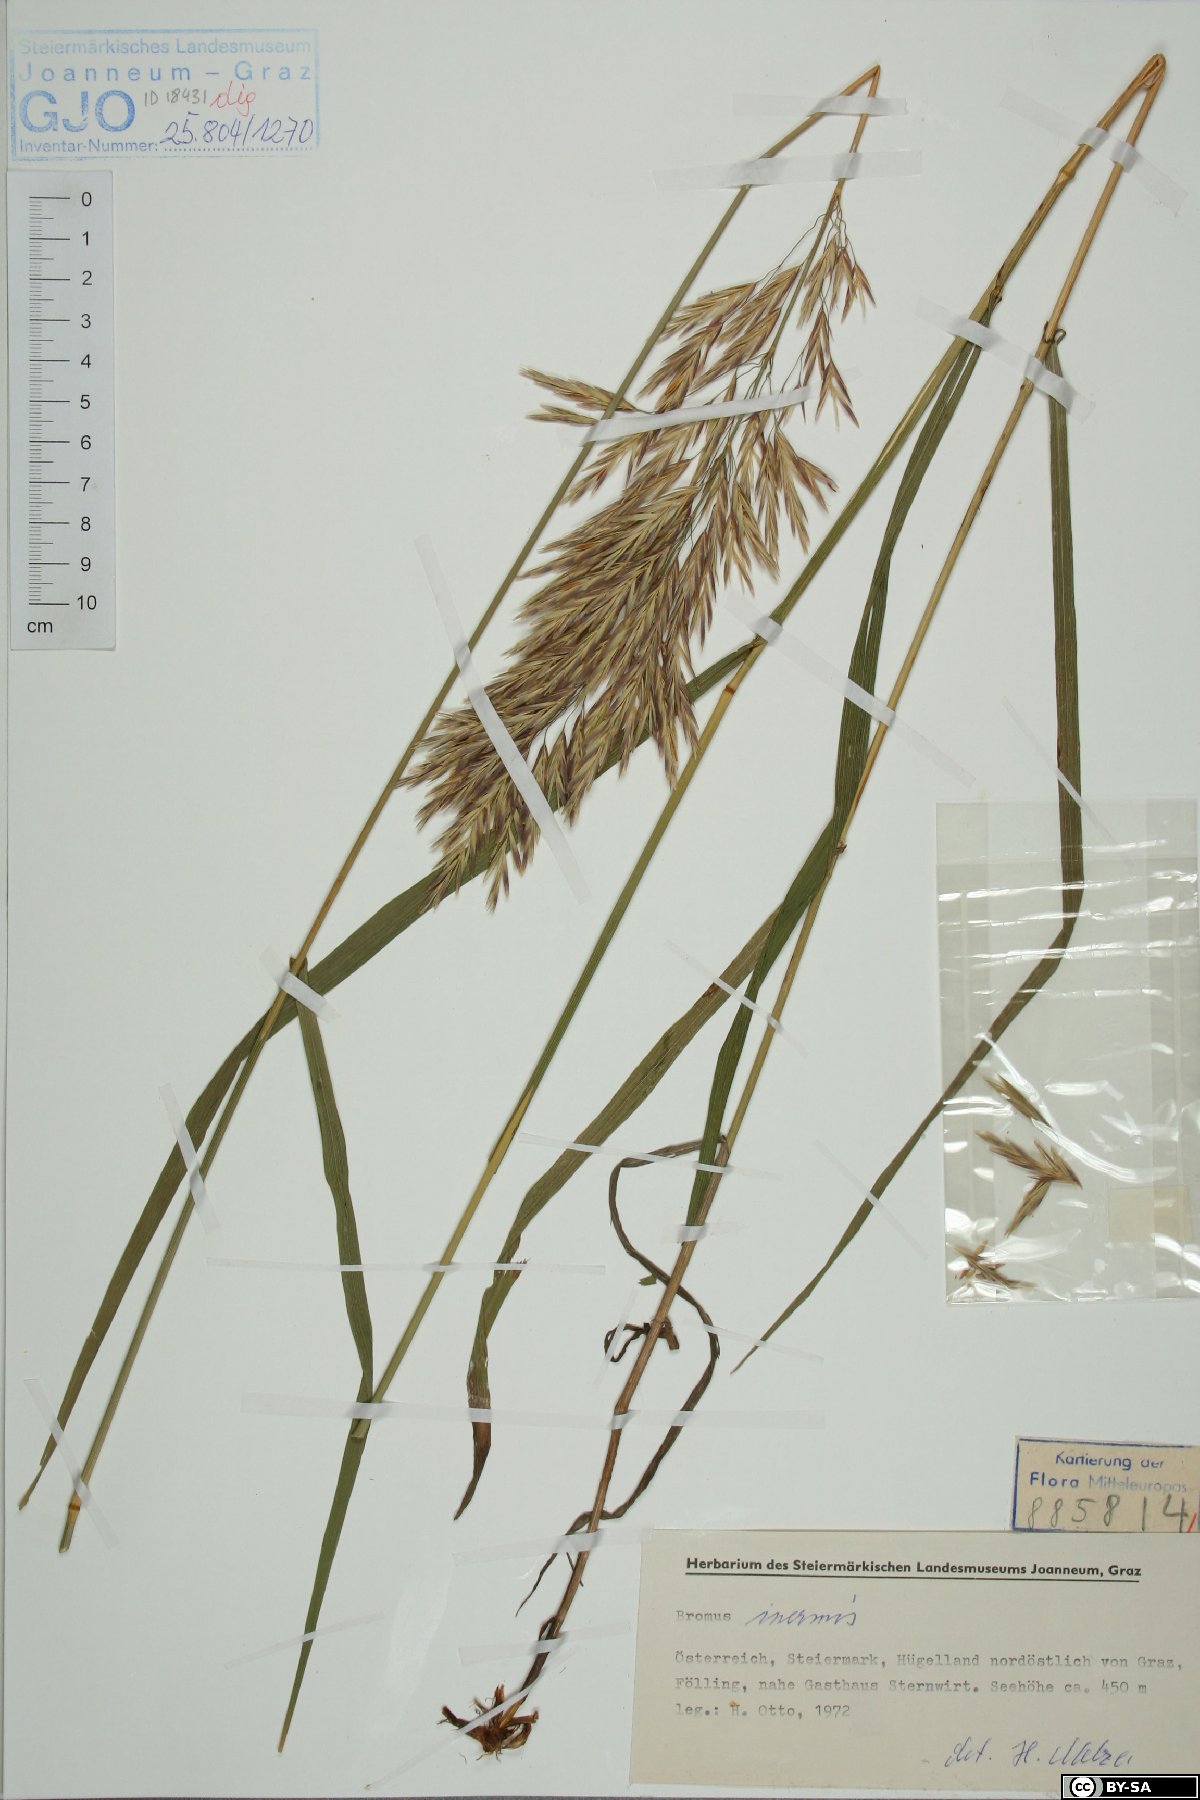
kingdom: Plantae
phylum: Tracheophyta
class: Liliopsida
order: Poales
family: Poaceae
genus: Bromus
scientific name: Bromus inermis
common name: Smooth brome
